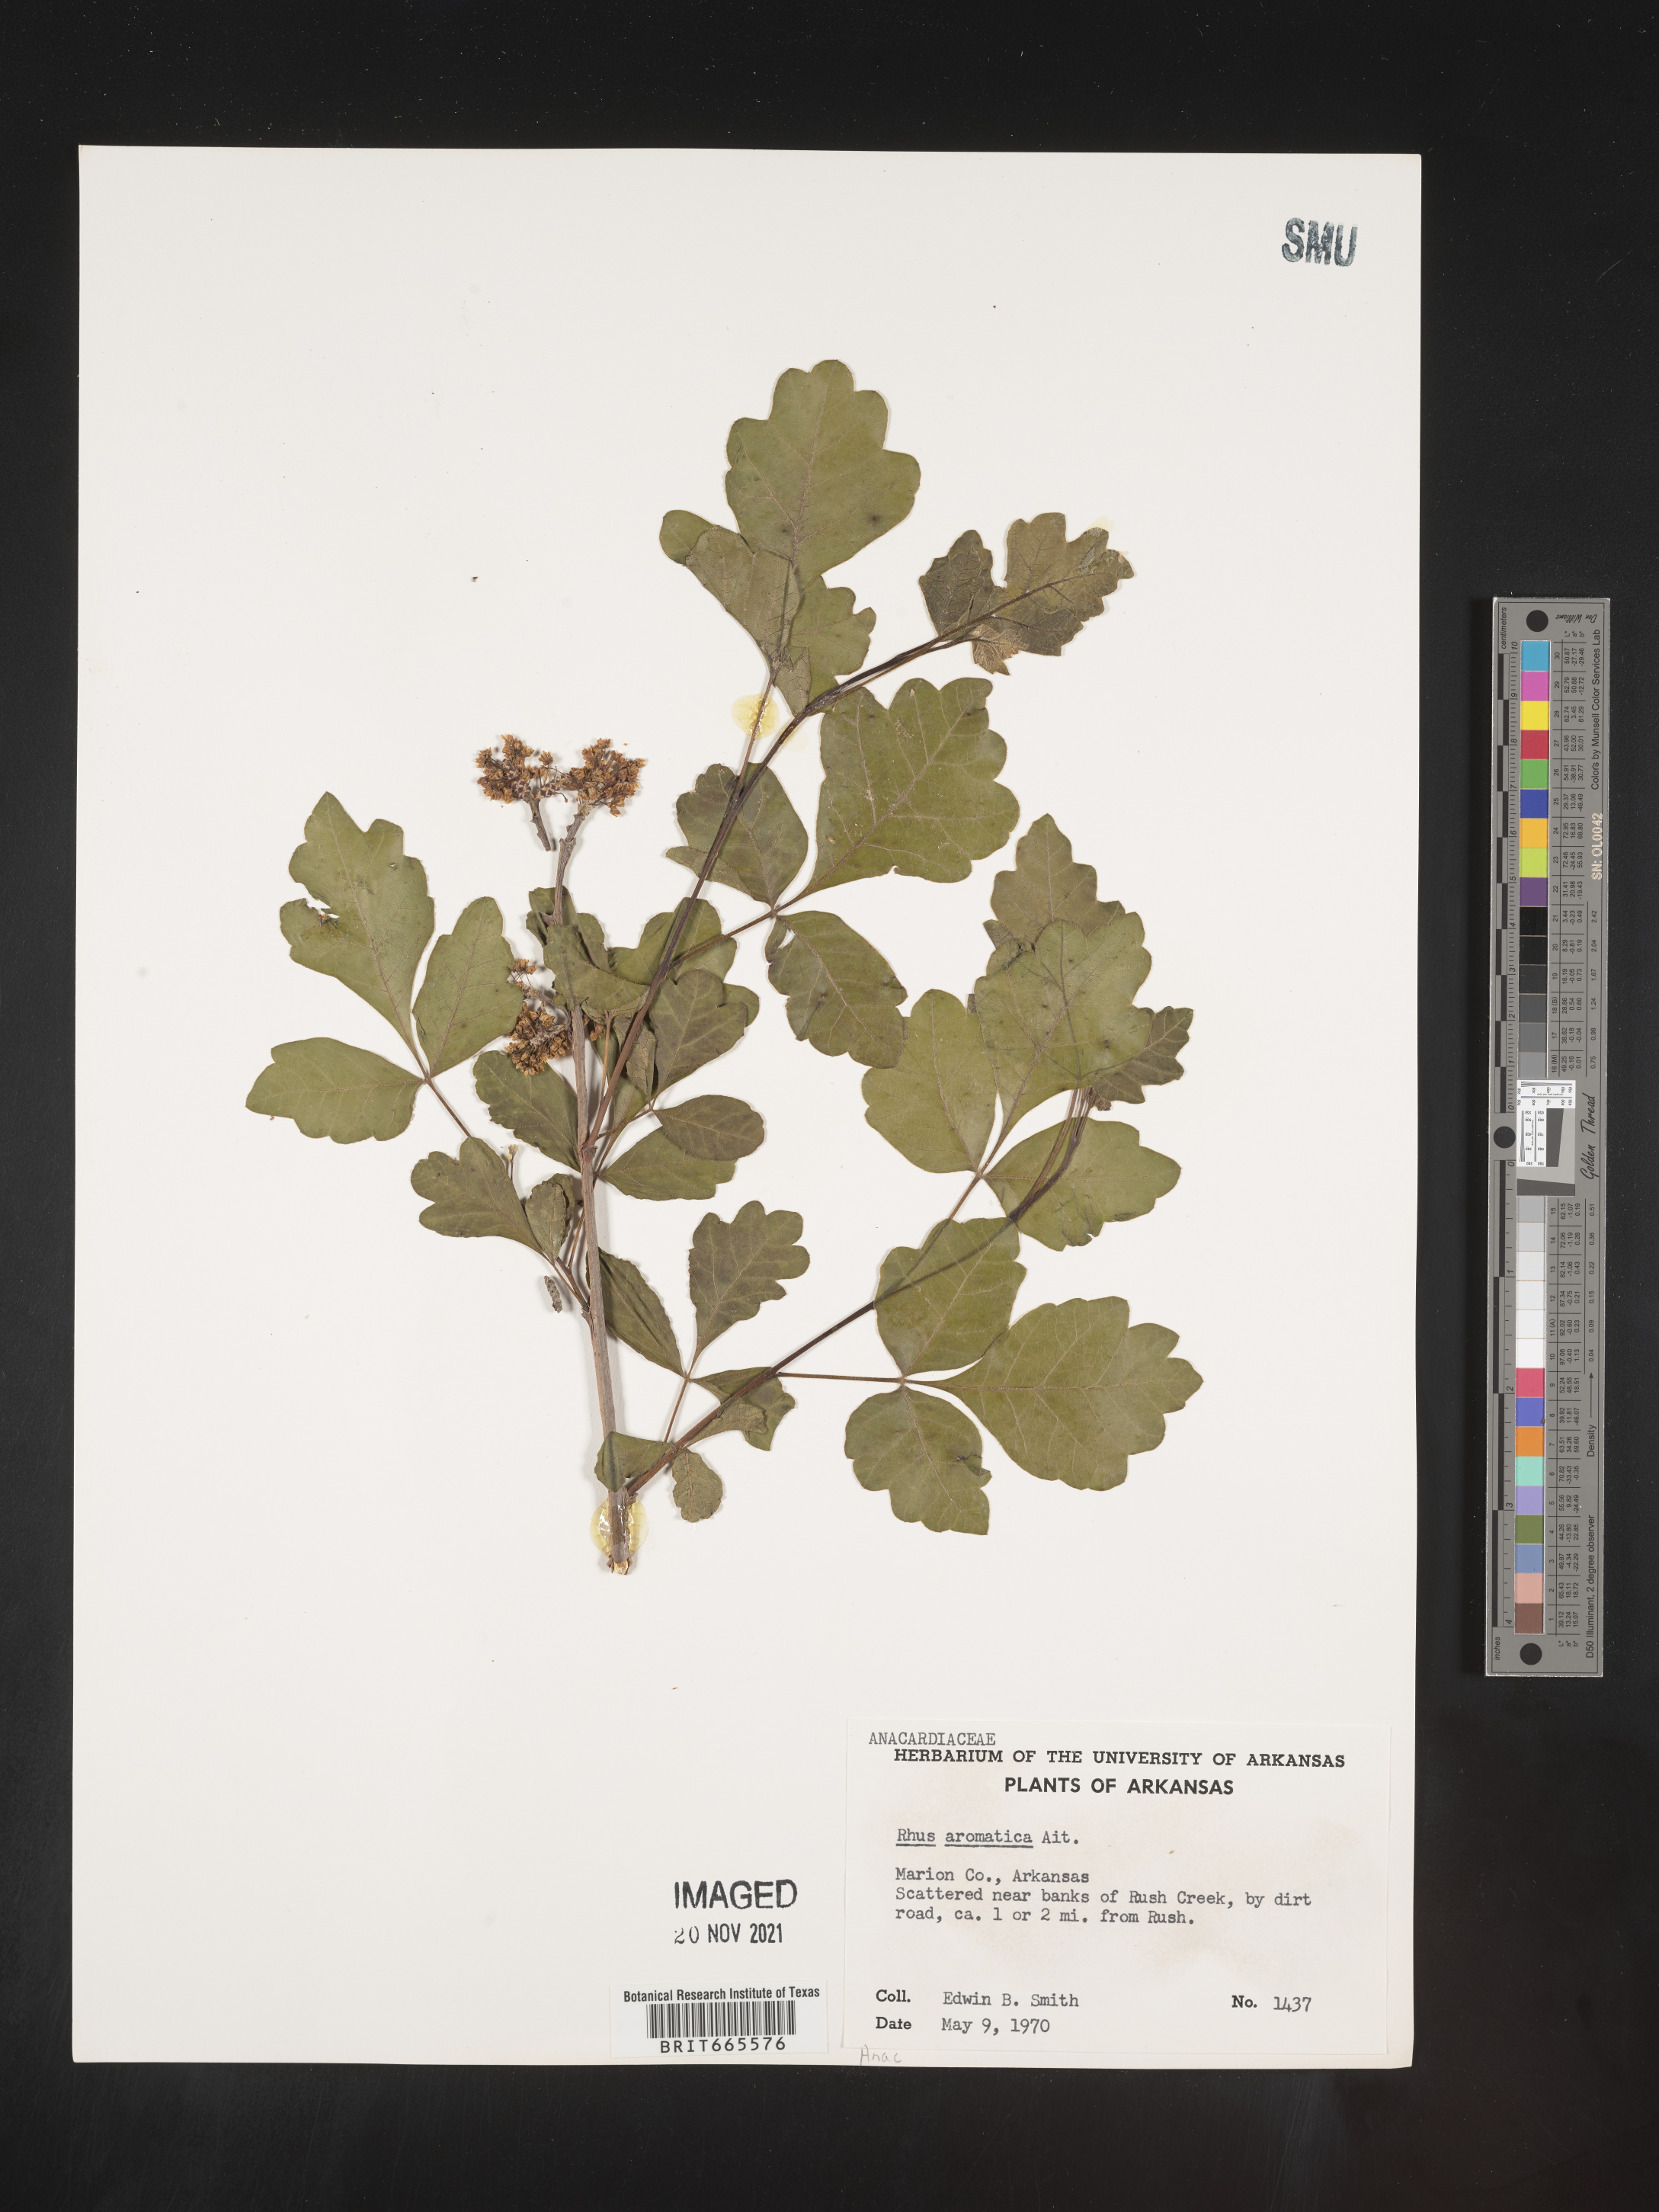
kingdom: Plantae
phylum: Tracheophyta
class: Magnoliopsida
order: Sapindales
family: Anacardiaceae
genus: Rhus
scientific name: Rhus aromatica
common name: Aromatic sumac
